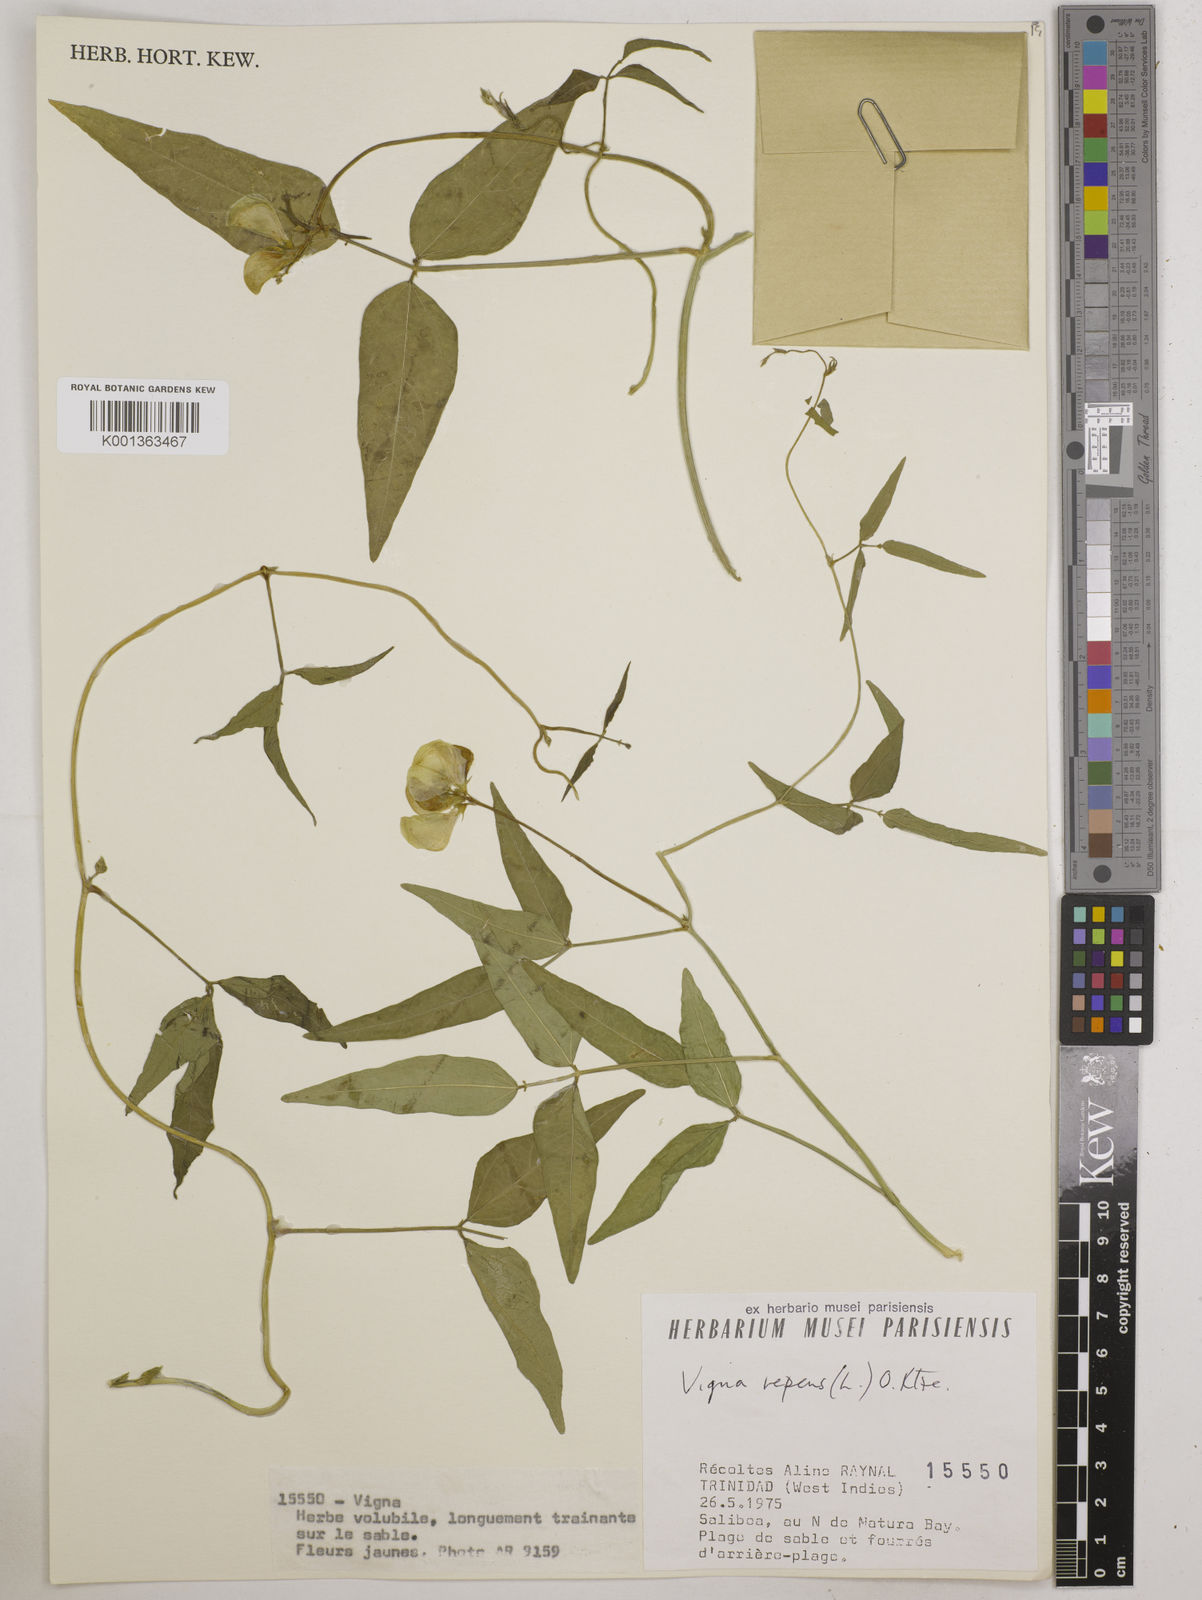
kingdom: Plantae
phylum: Tracheophyta
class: Magnoliopsida
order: Fabales
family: Fabaceae
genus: Vigna
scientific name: Vigna luteola
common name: Hairypod cowpea
